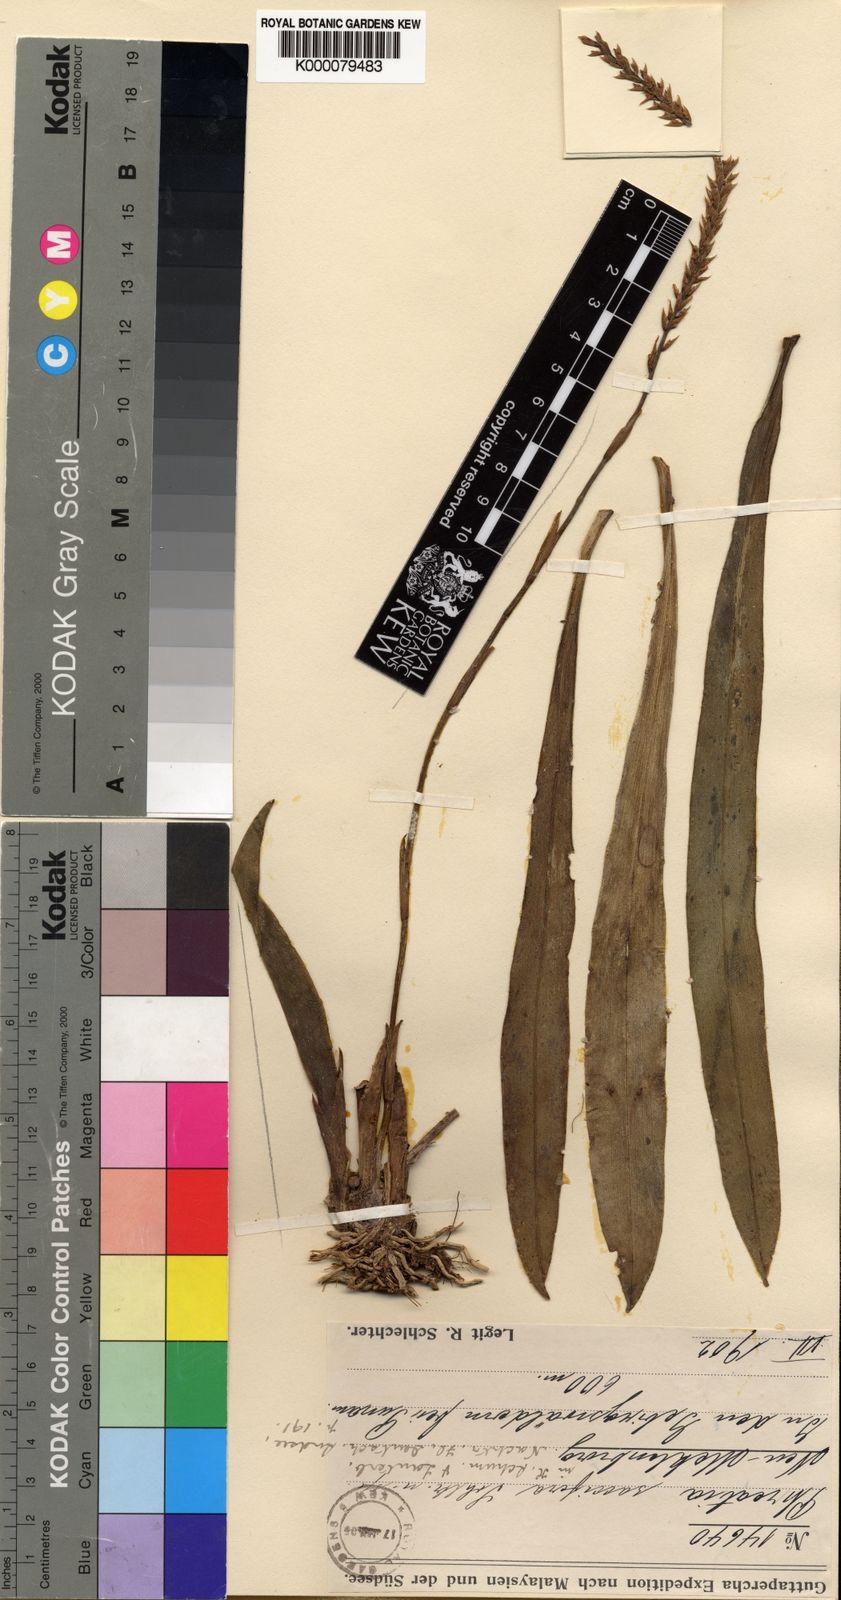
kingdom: Plantae
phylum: Tracheophyta
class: Liliopsida
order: Asparagales
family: Orchidaceae
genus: Phreatia
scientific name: Phreatia saccifera
